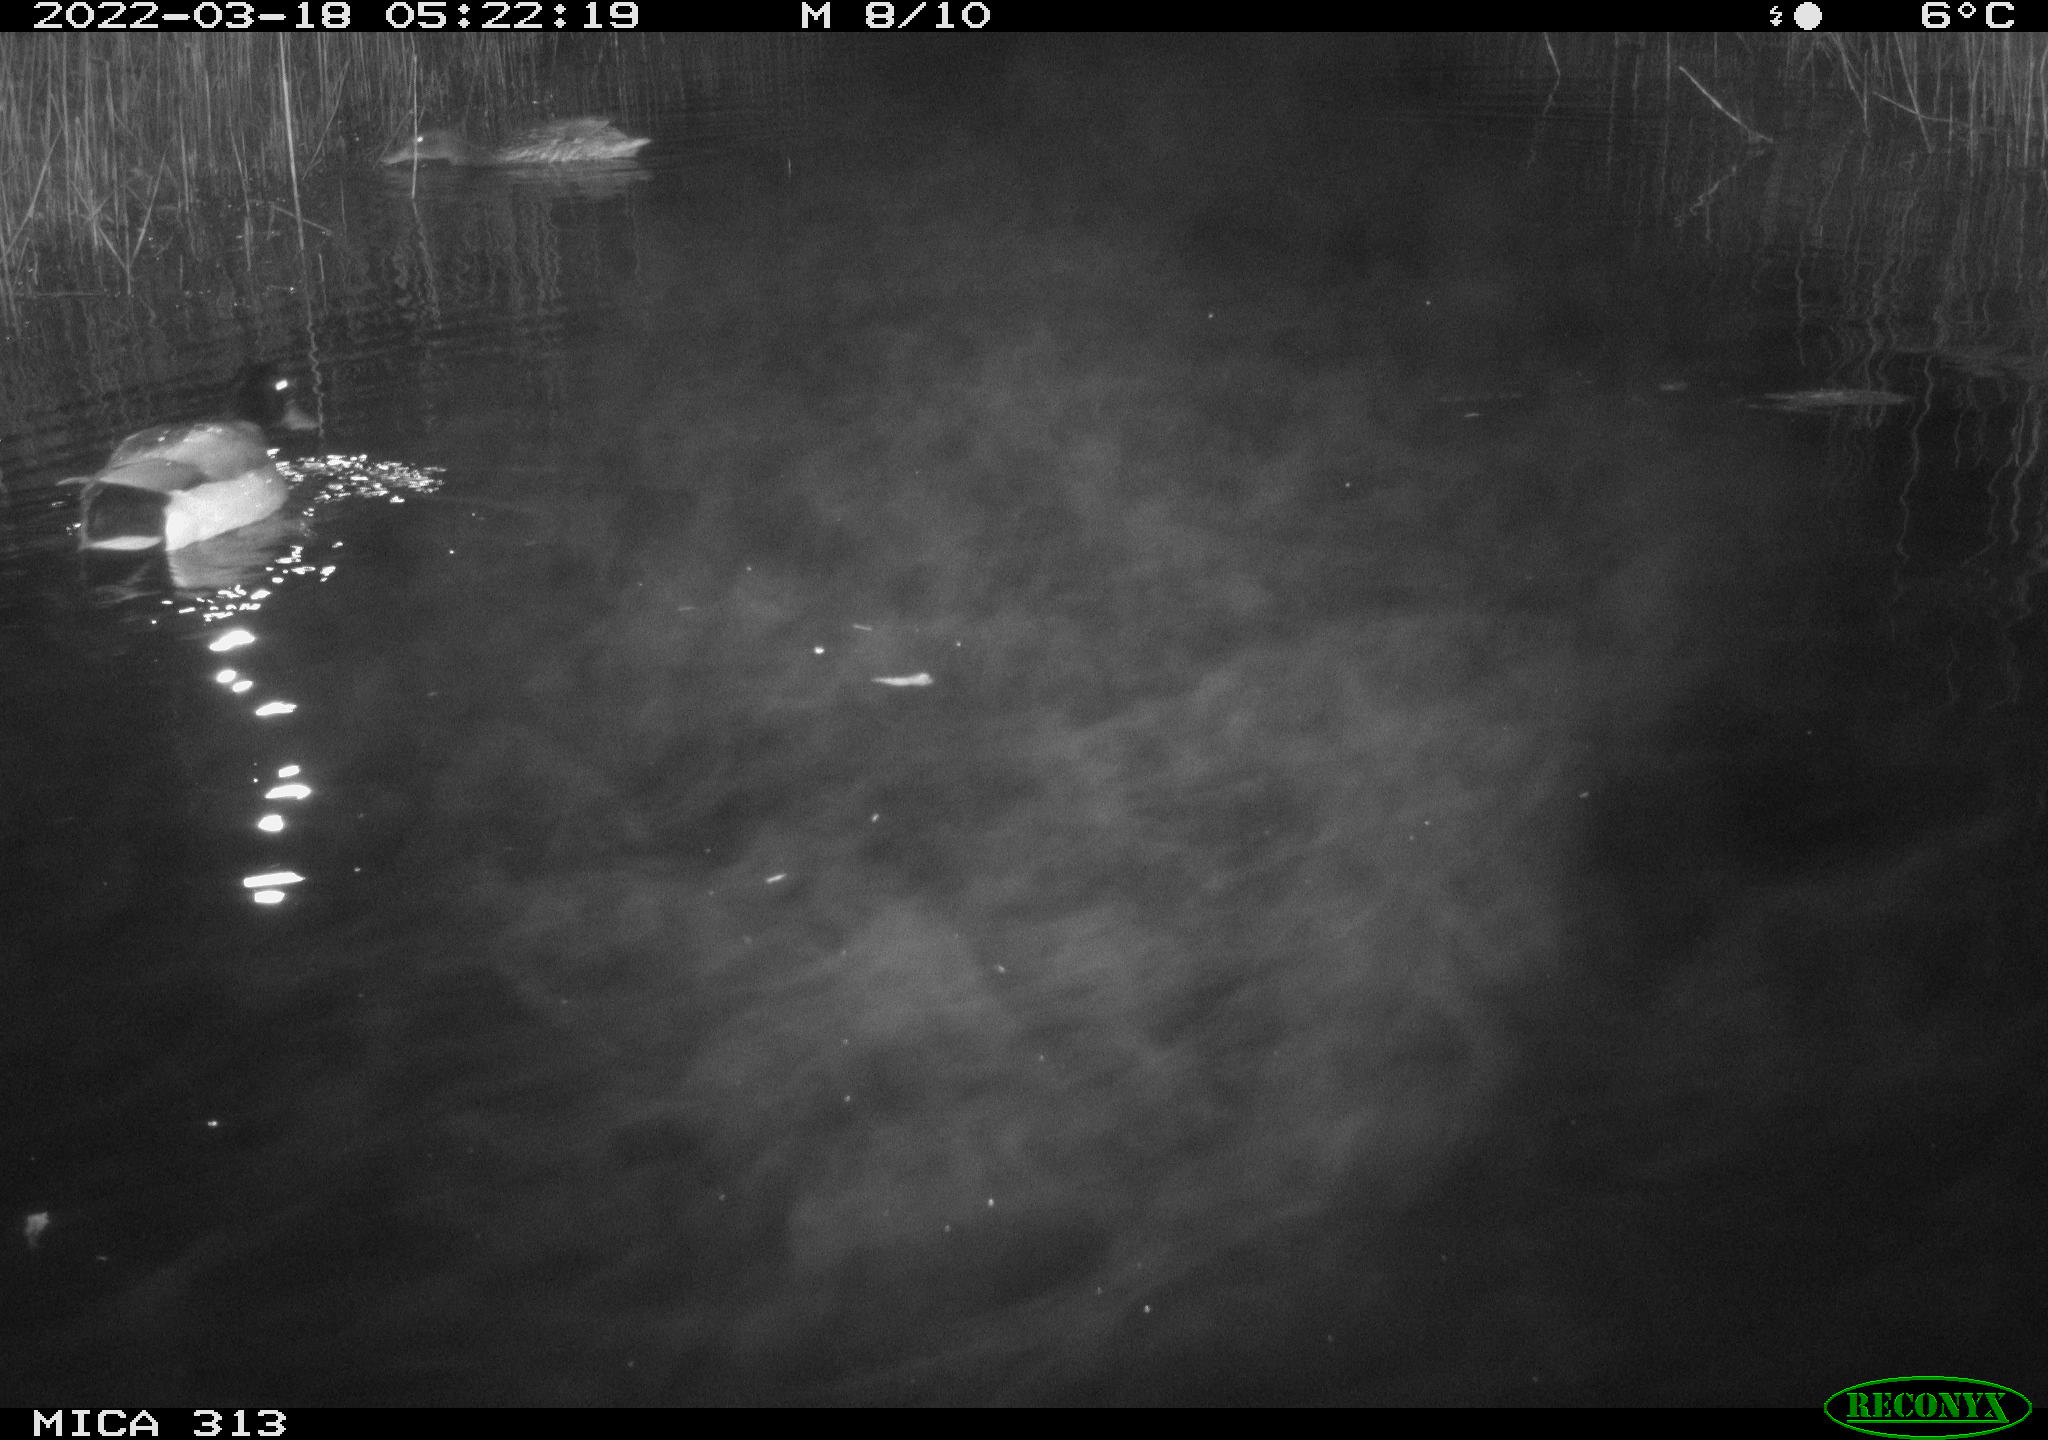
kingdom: Animalia
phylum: Chordata
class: Aves
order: Anseriformes
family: Anatidae
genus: Anas
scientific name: Anas platyrhynchos
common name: Mallard
